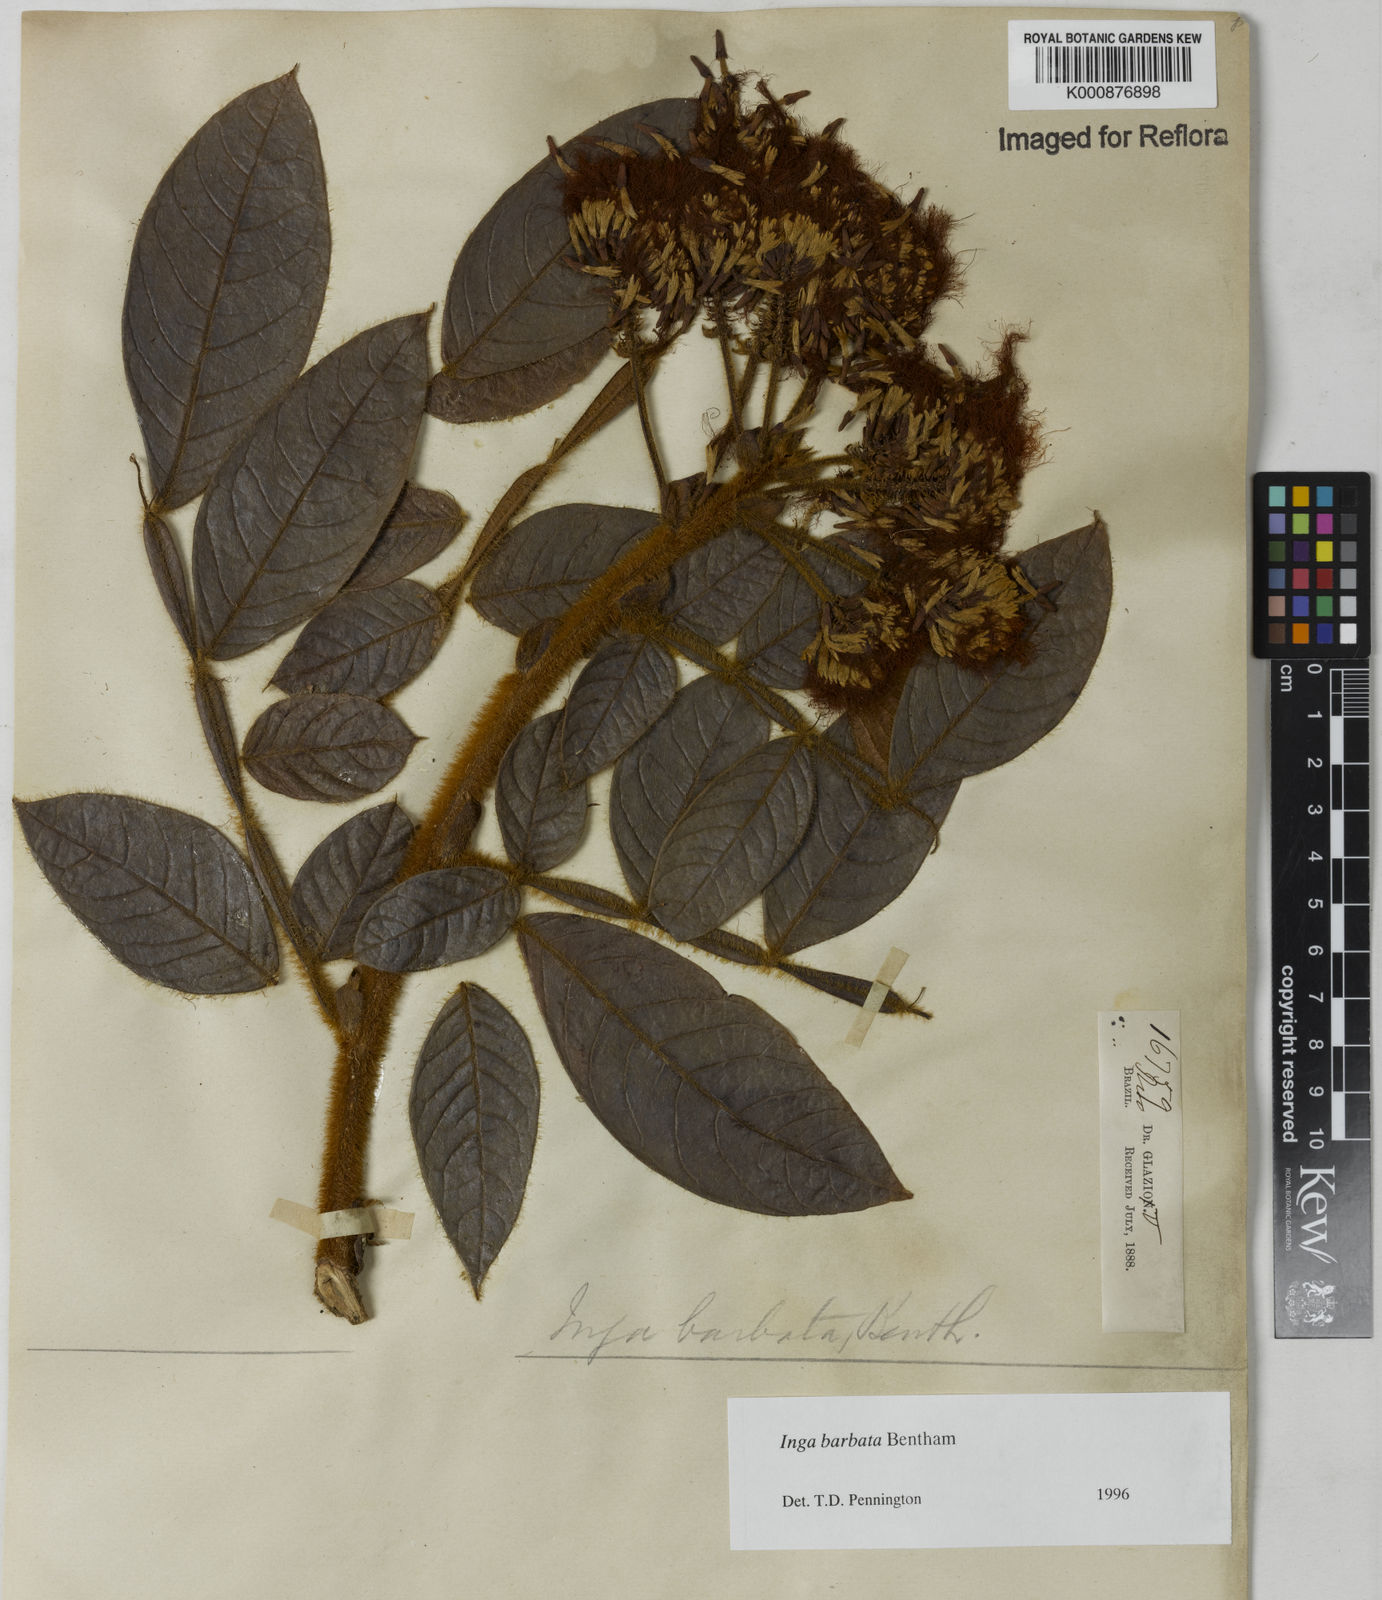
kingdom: Plantae
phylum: Tracheophyta
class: Magnoliopsida
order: Fabales
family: Fabaceae
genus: Inga
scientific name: Inga barbata
